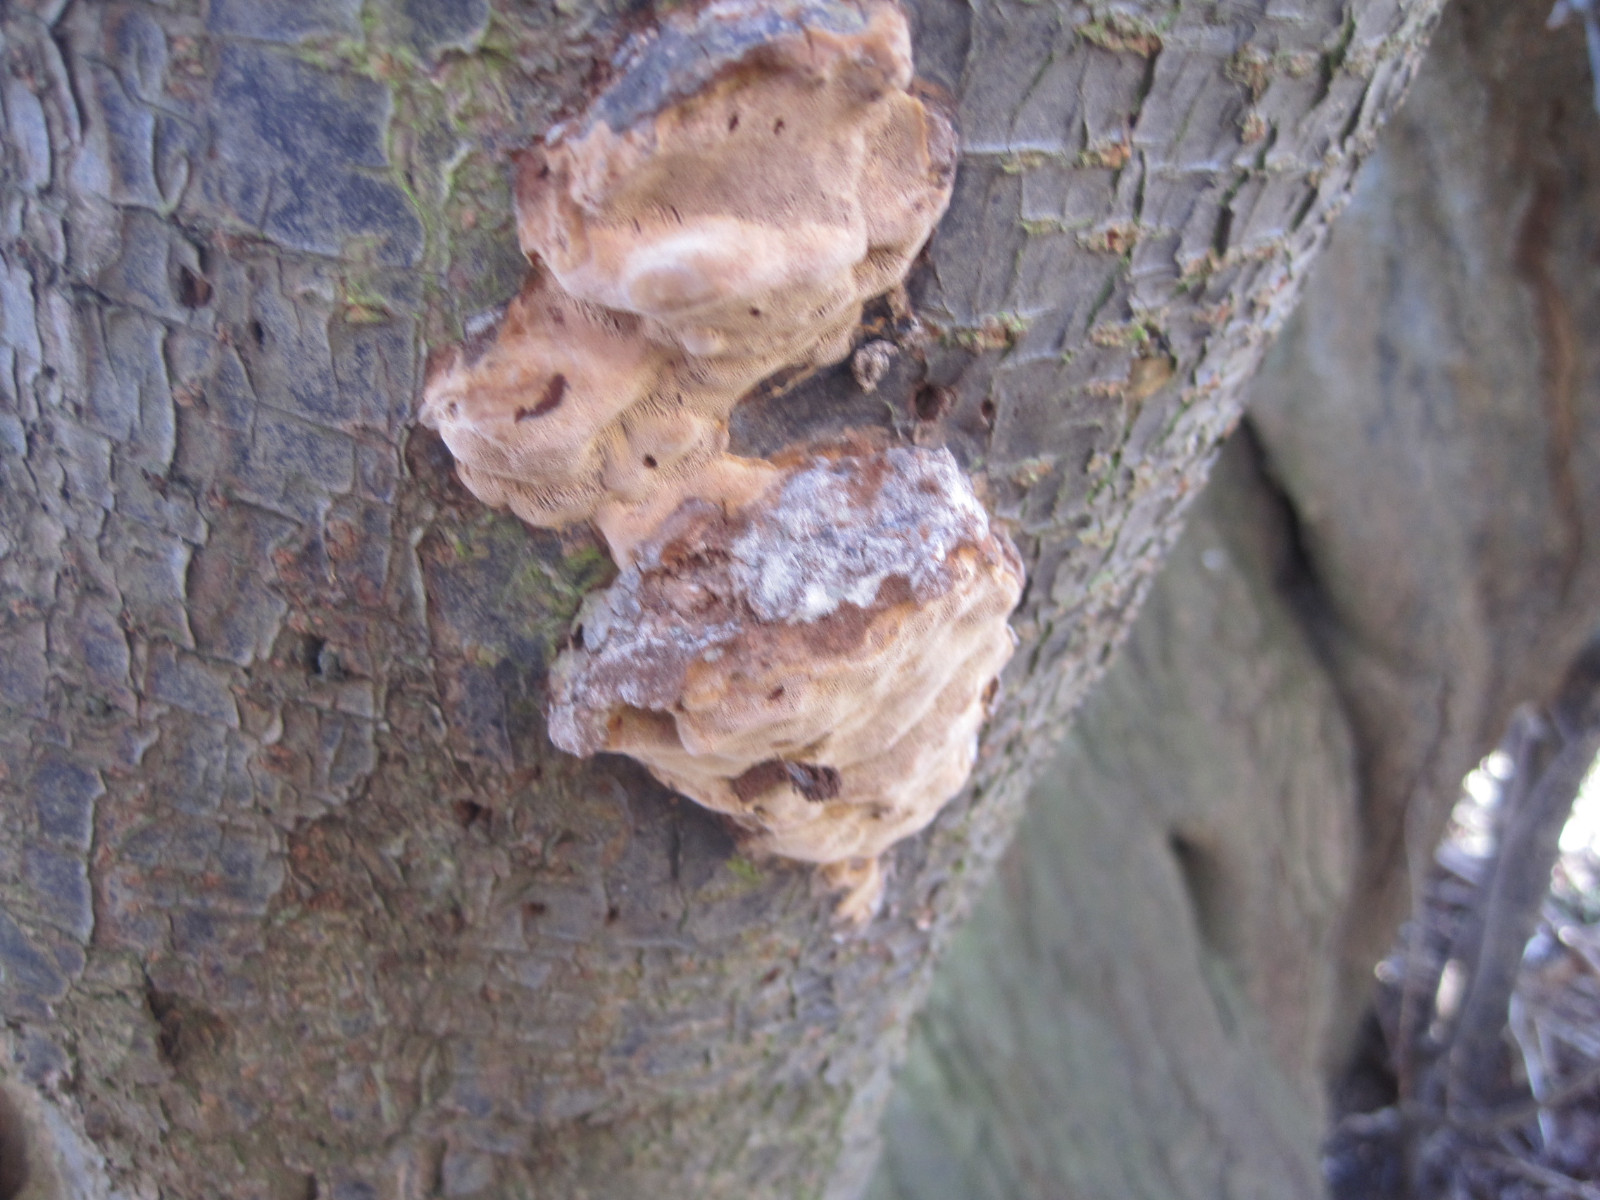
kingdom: Fungi
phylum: Basidiomycota
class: Agaricomycetes
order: Hymenochaetales
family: Hymenochaetaceae
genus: Phellinus
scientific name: Phellinus pomaceus
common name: blomme-ildporesvamp
